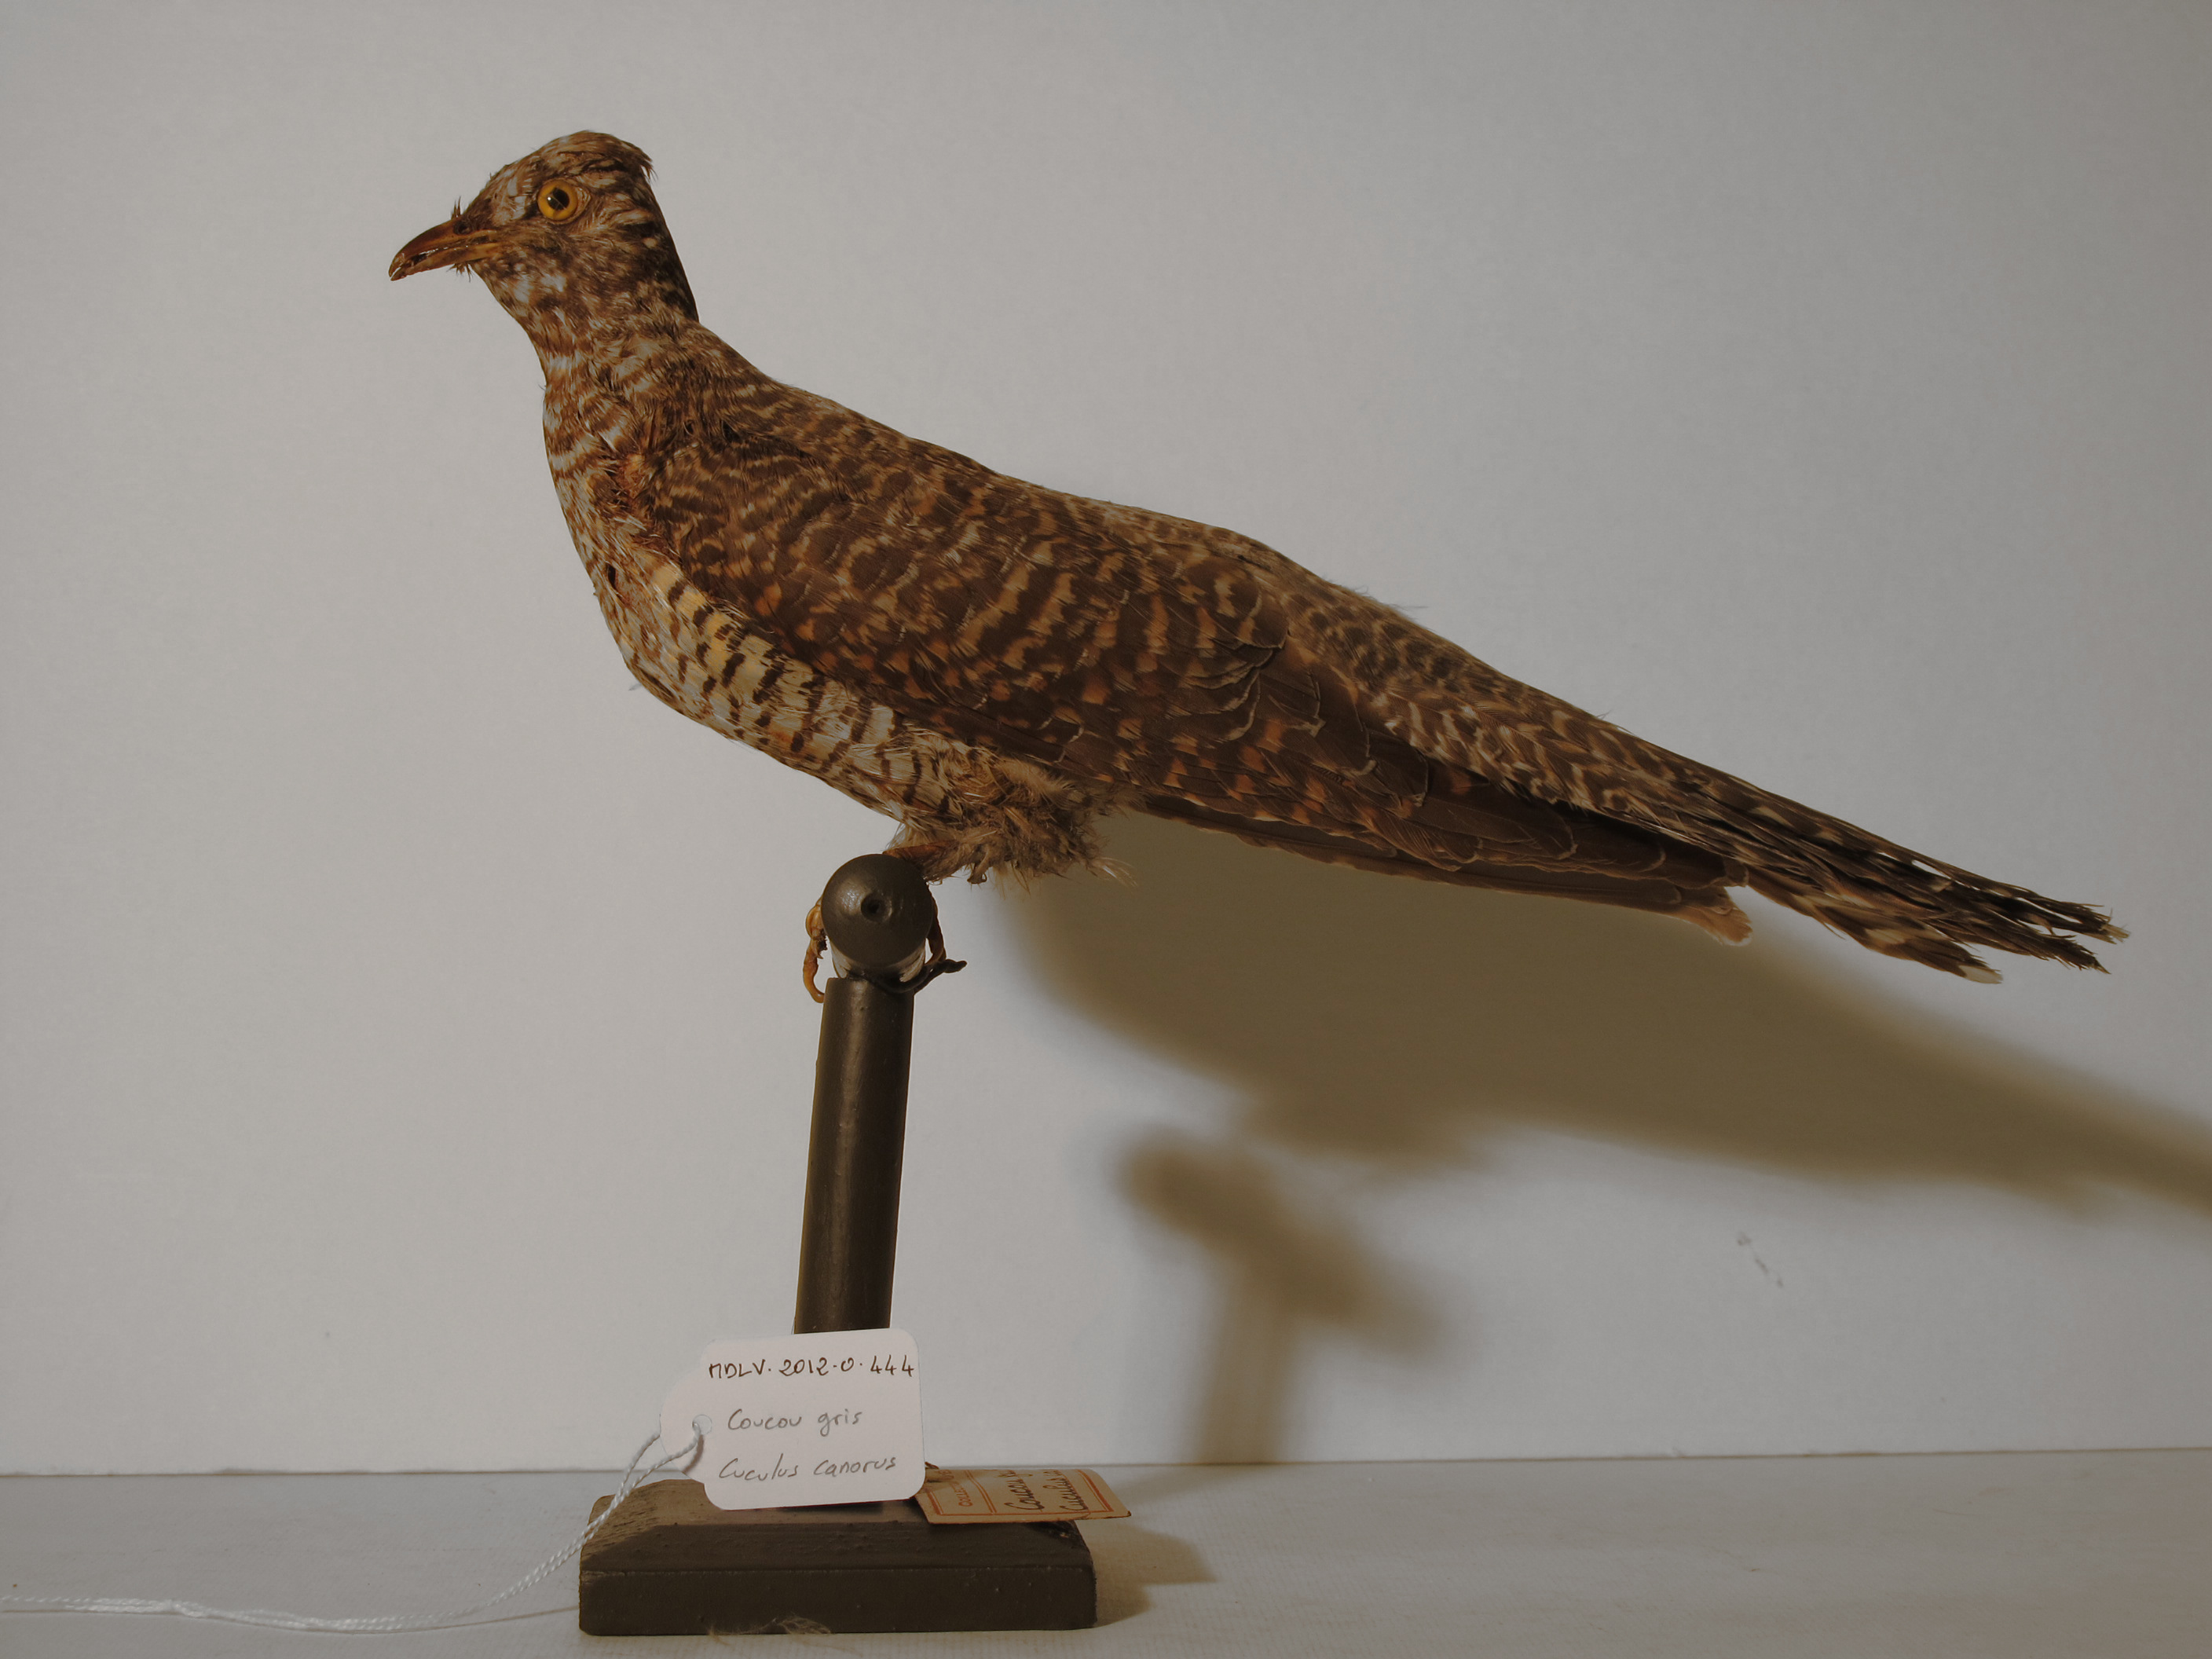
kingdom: Animalia
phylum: Chordata
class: Aves
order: Cuculiformes
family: Cuculidae
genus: Cuculus
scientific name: Cuculus canorus
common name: Common Cuckoo
